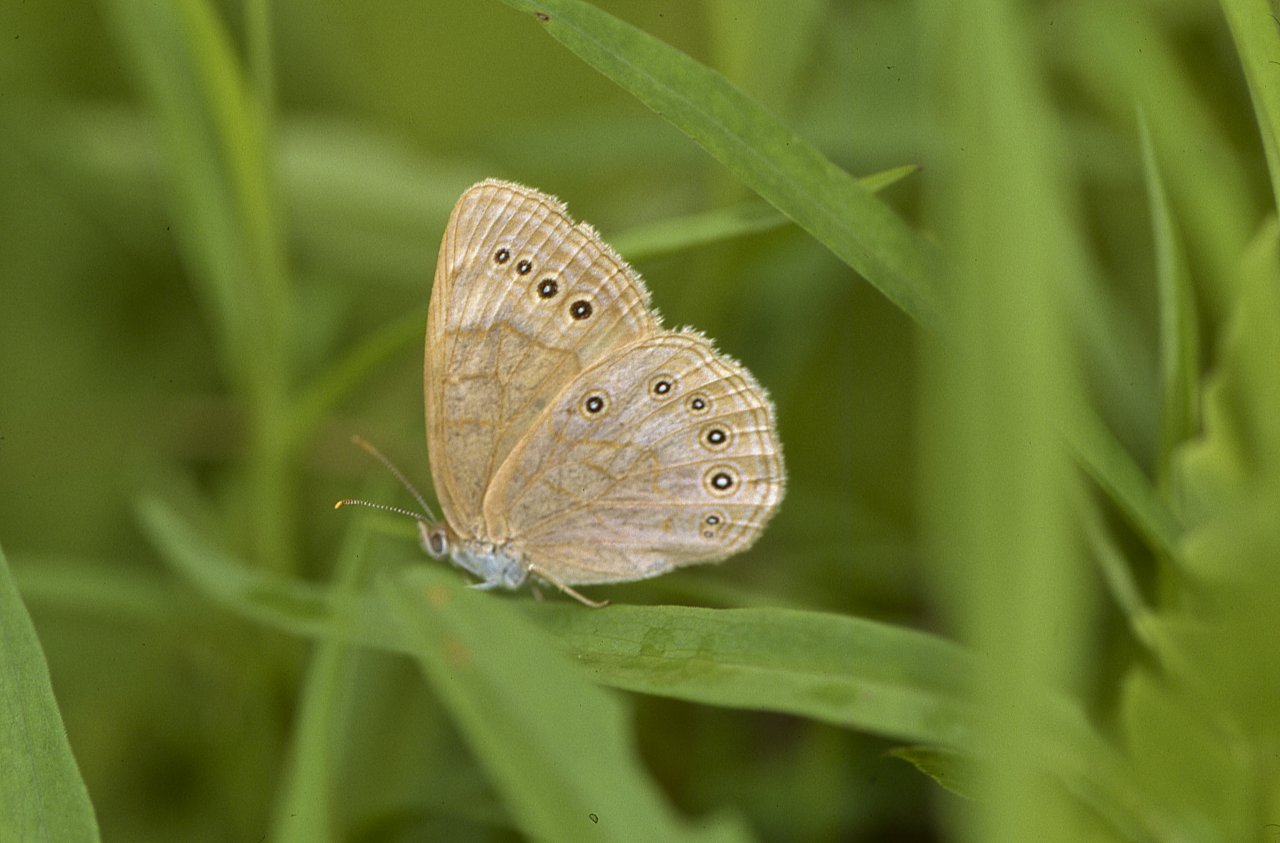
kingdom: Animalia
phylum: Arthropoda
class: Insecta
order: Lepidoptera
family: Nymphalidae
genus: Lethe
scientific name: Lethe eurydice
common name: Eyed Brown
